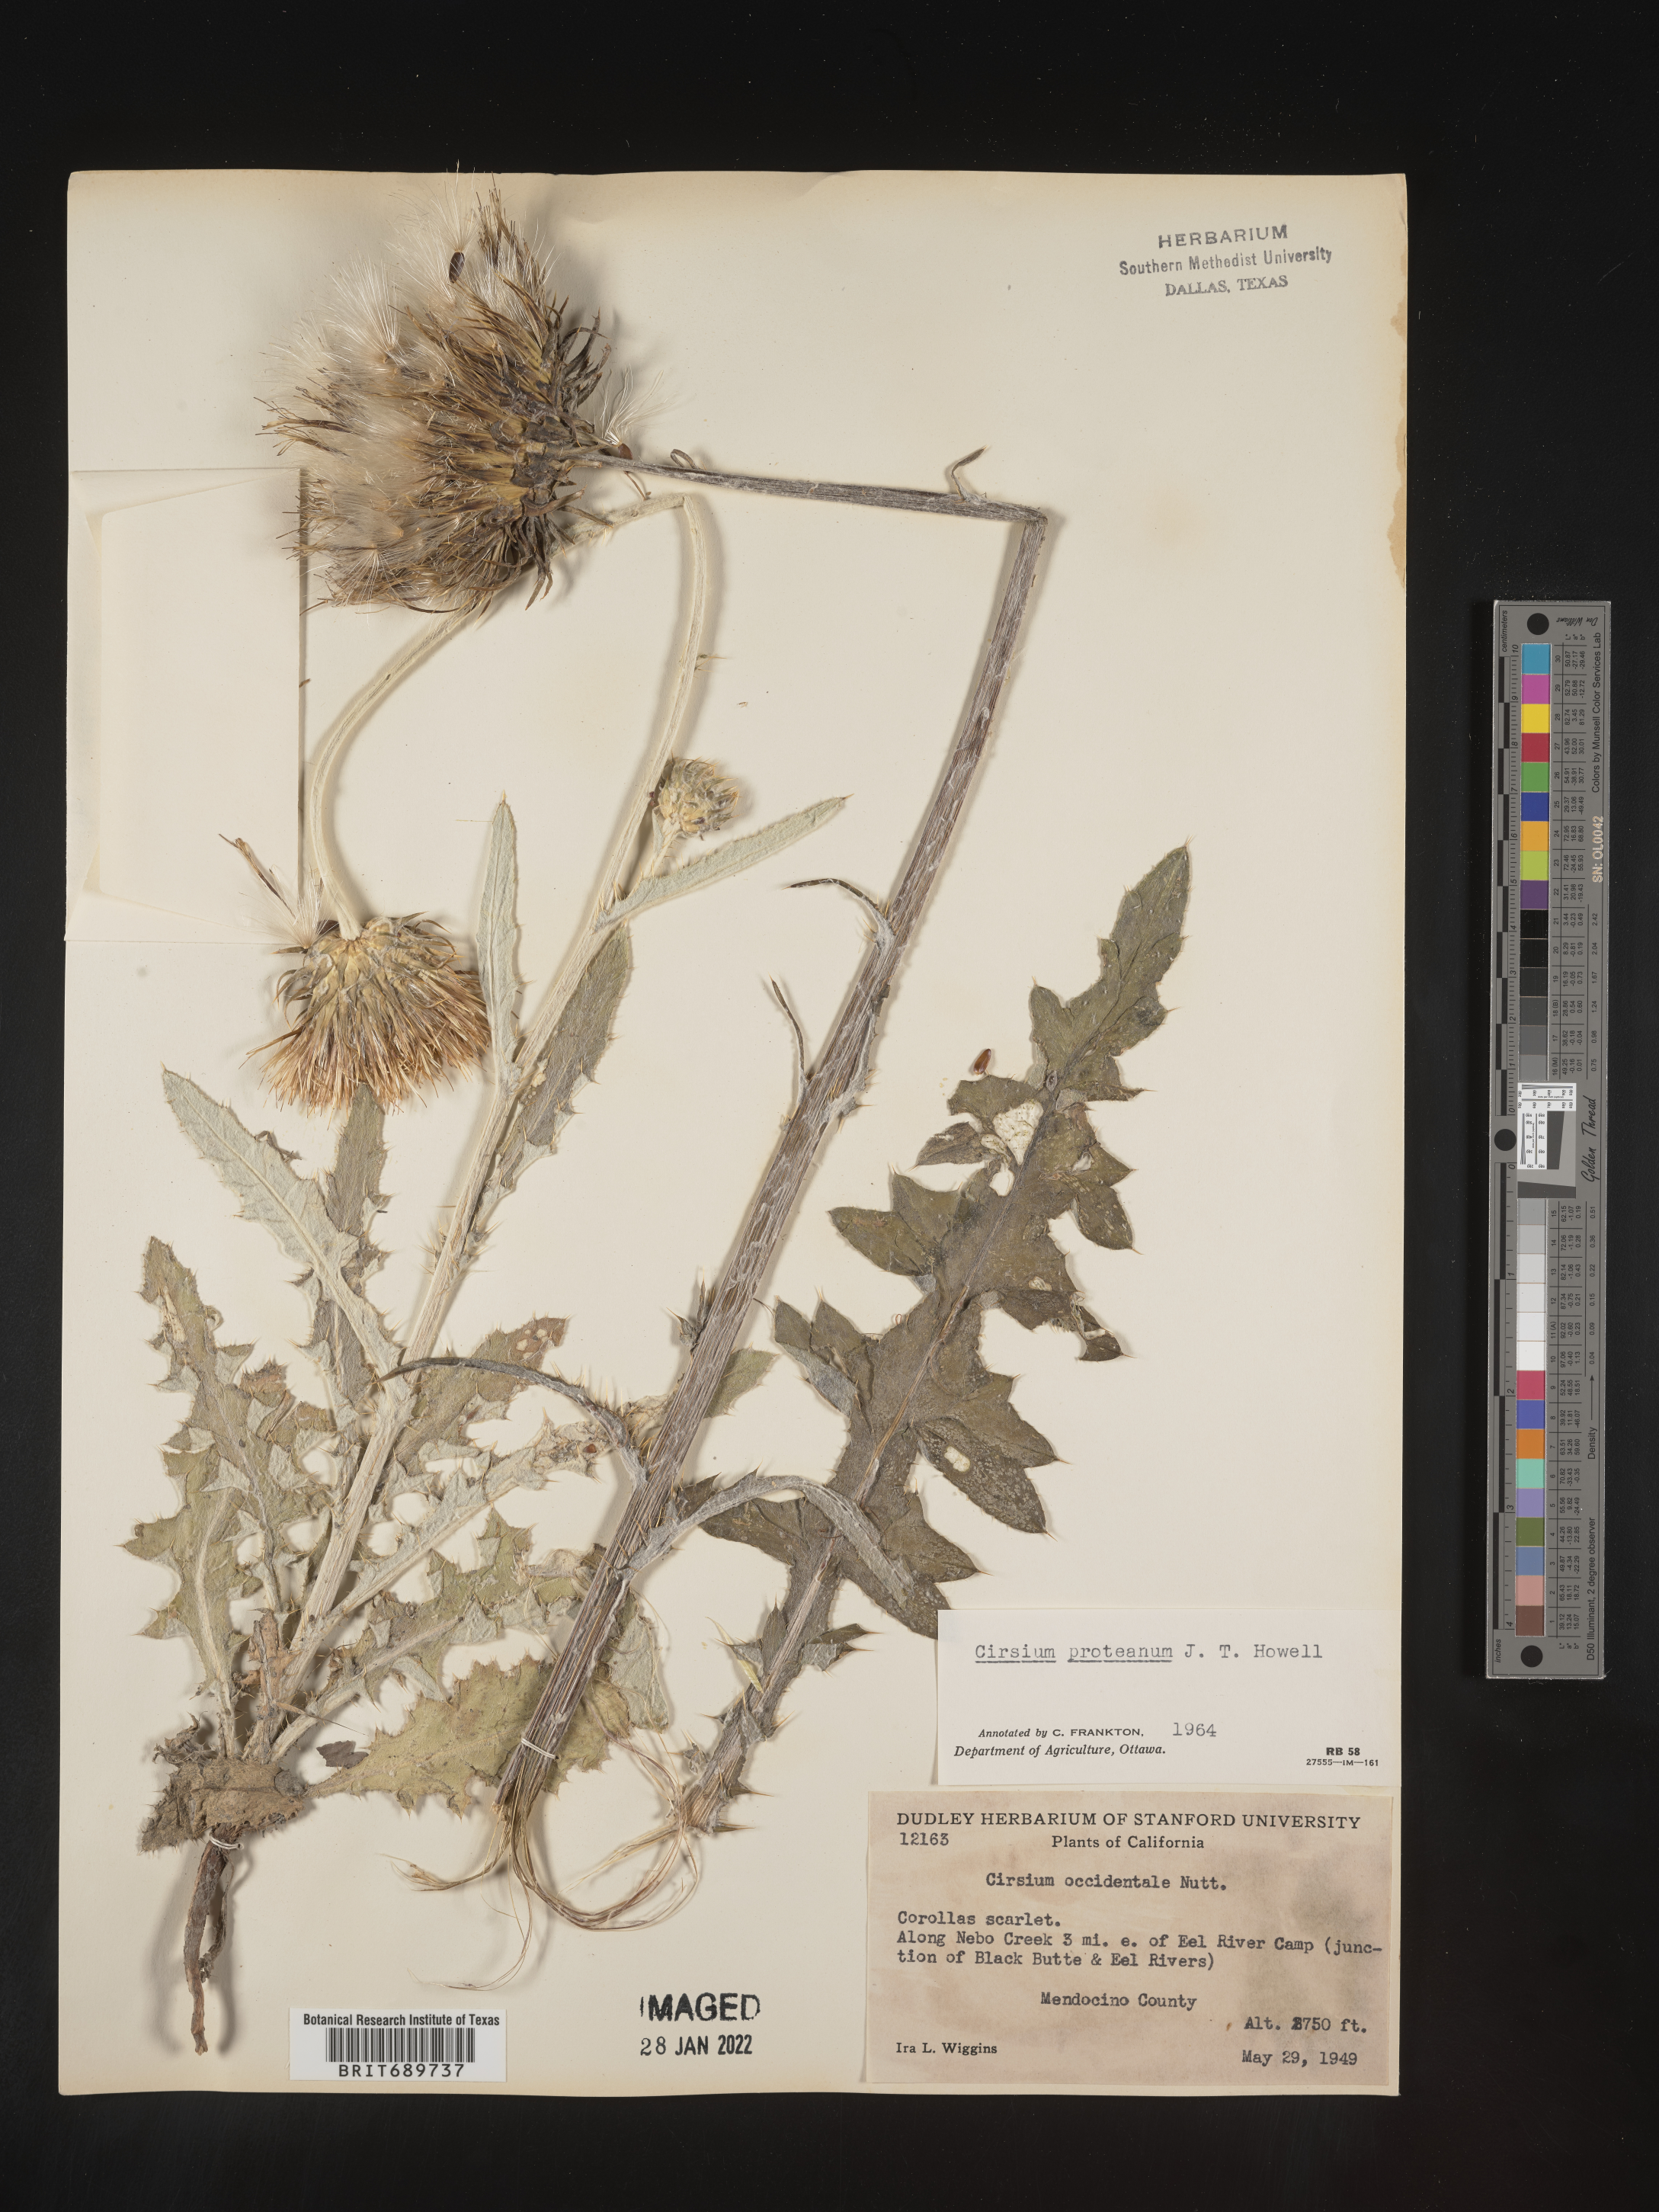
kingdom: Plantae
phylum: Tracheophyta
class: Magnoliopsida
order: Asterales
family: Asteraceae
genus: Cirsium
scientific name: Cirsium occidentale
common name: Western thistle
